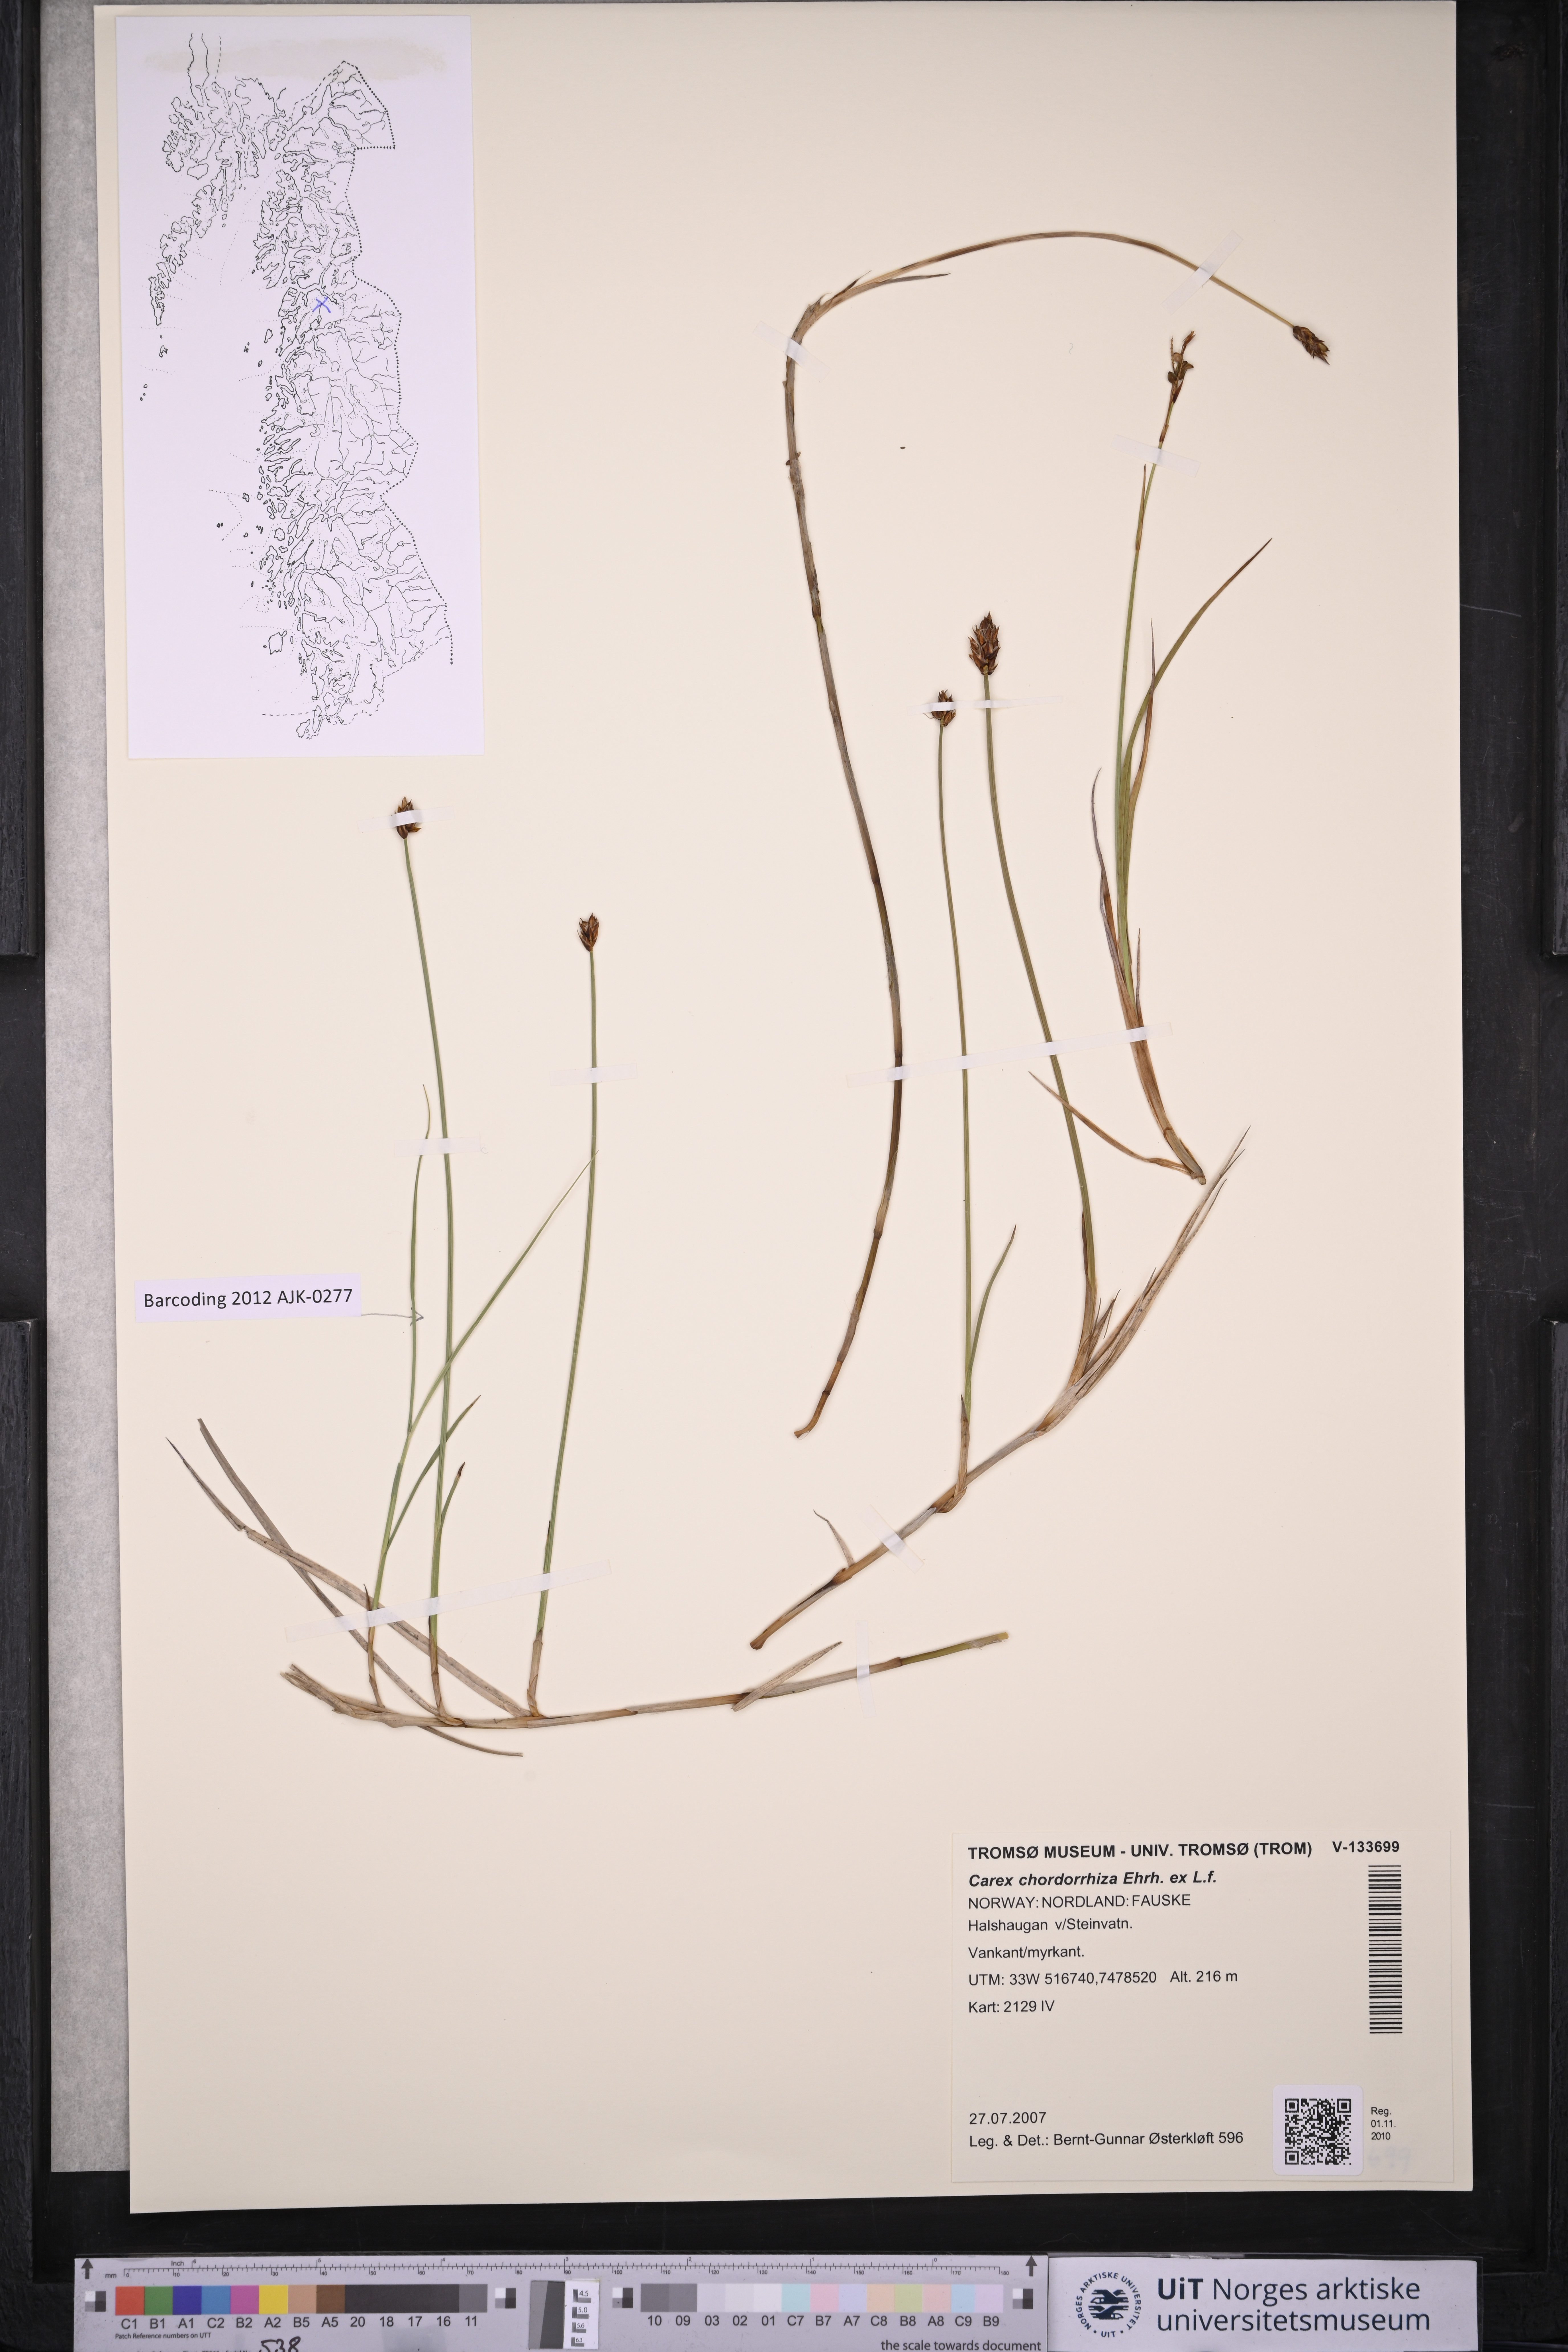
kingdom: Plantae
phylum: Tracheophyta
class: Liliopsida
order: Poales
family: Cyperaceae
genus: Carex
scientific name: Carex chordorrhiza
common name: String sedge
